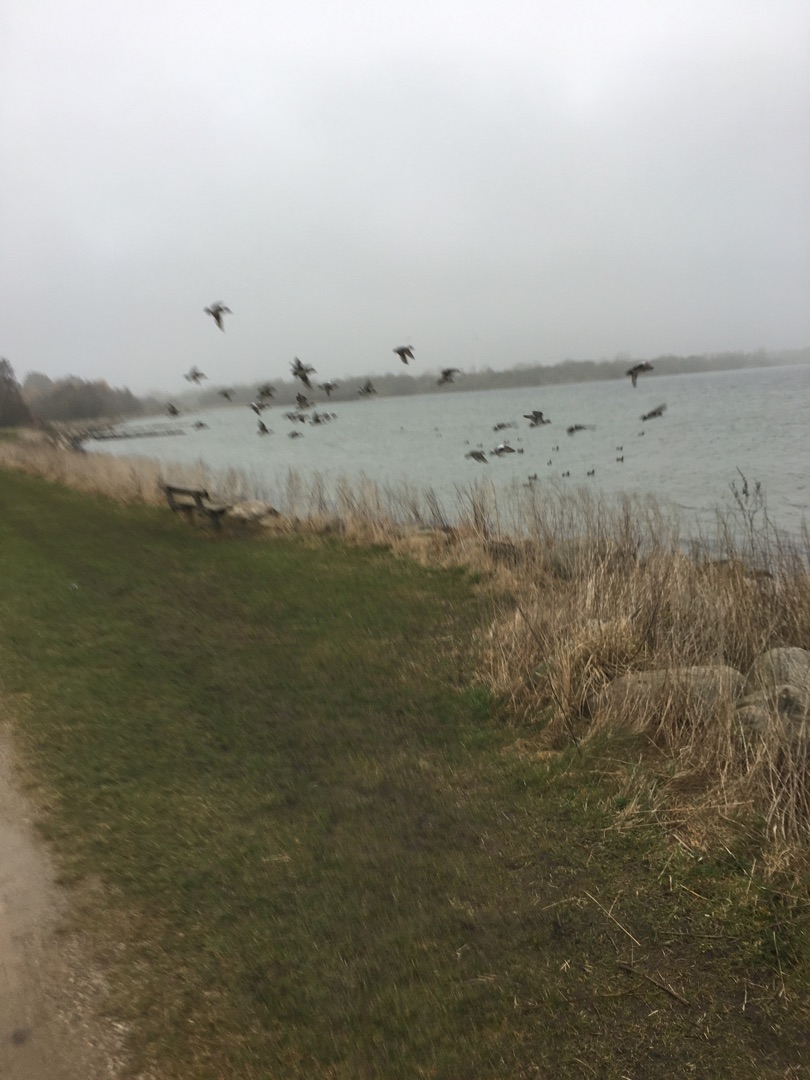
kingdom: Animalia
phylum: Chordata
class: Aves
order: Anseriformes
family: Anatidae
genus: Mareca
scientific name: Mareca penelope
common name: Pibeand
